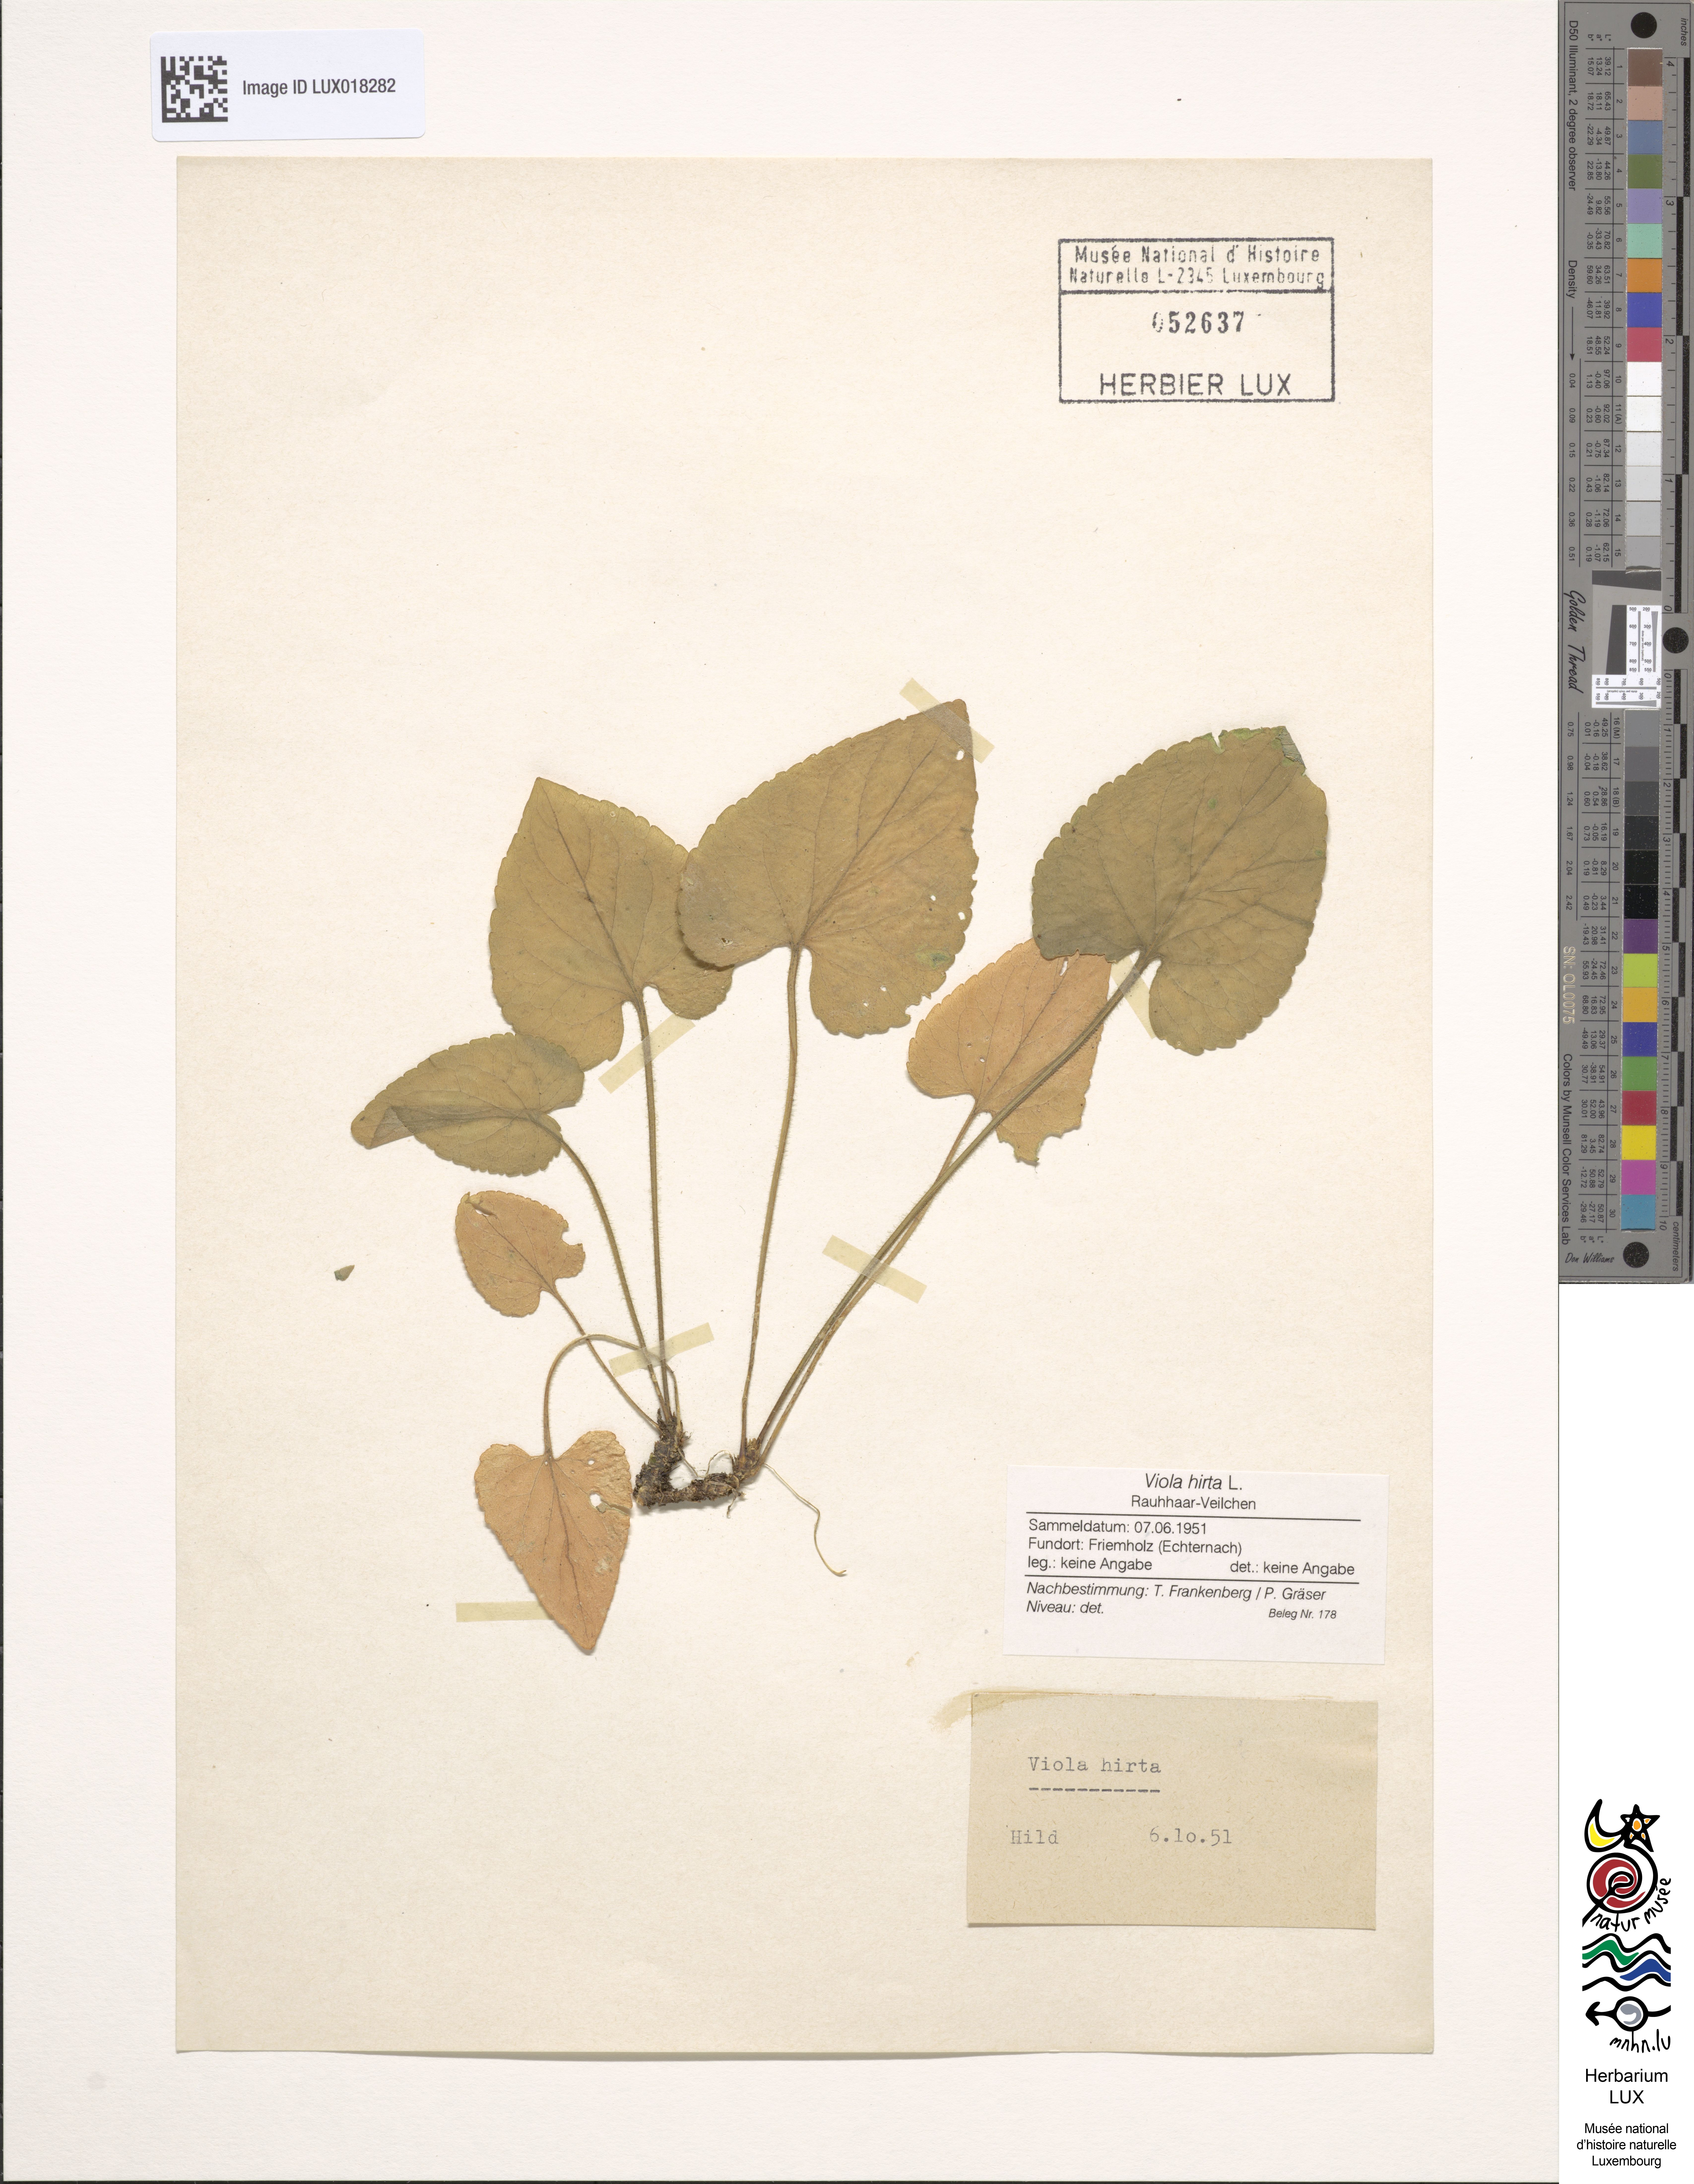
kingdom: Plantae
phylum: Tracheophyta
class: Magnoliopsida
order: Malpighiales
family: Violaceae
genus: Viola
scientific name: Viola hirta
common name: Hairy violet
